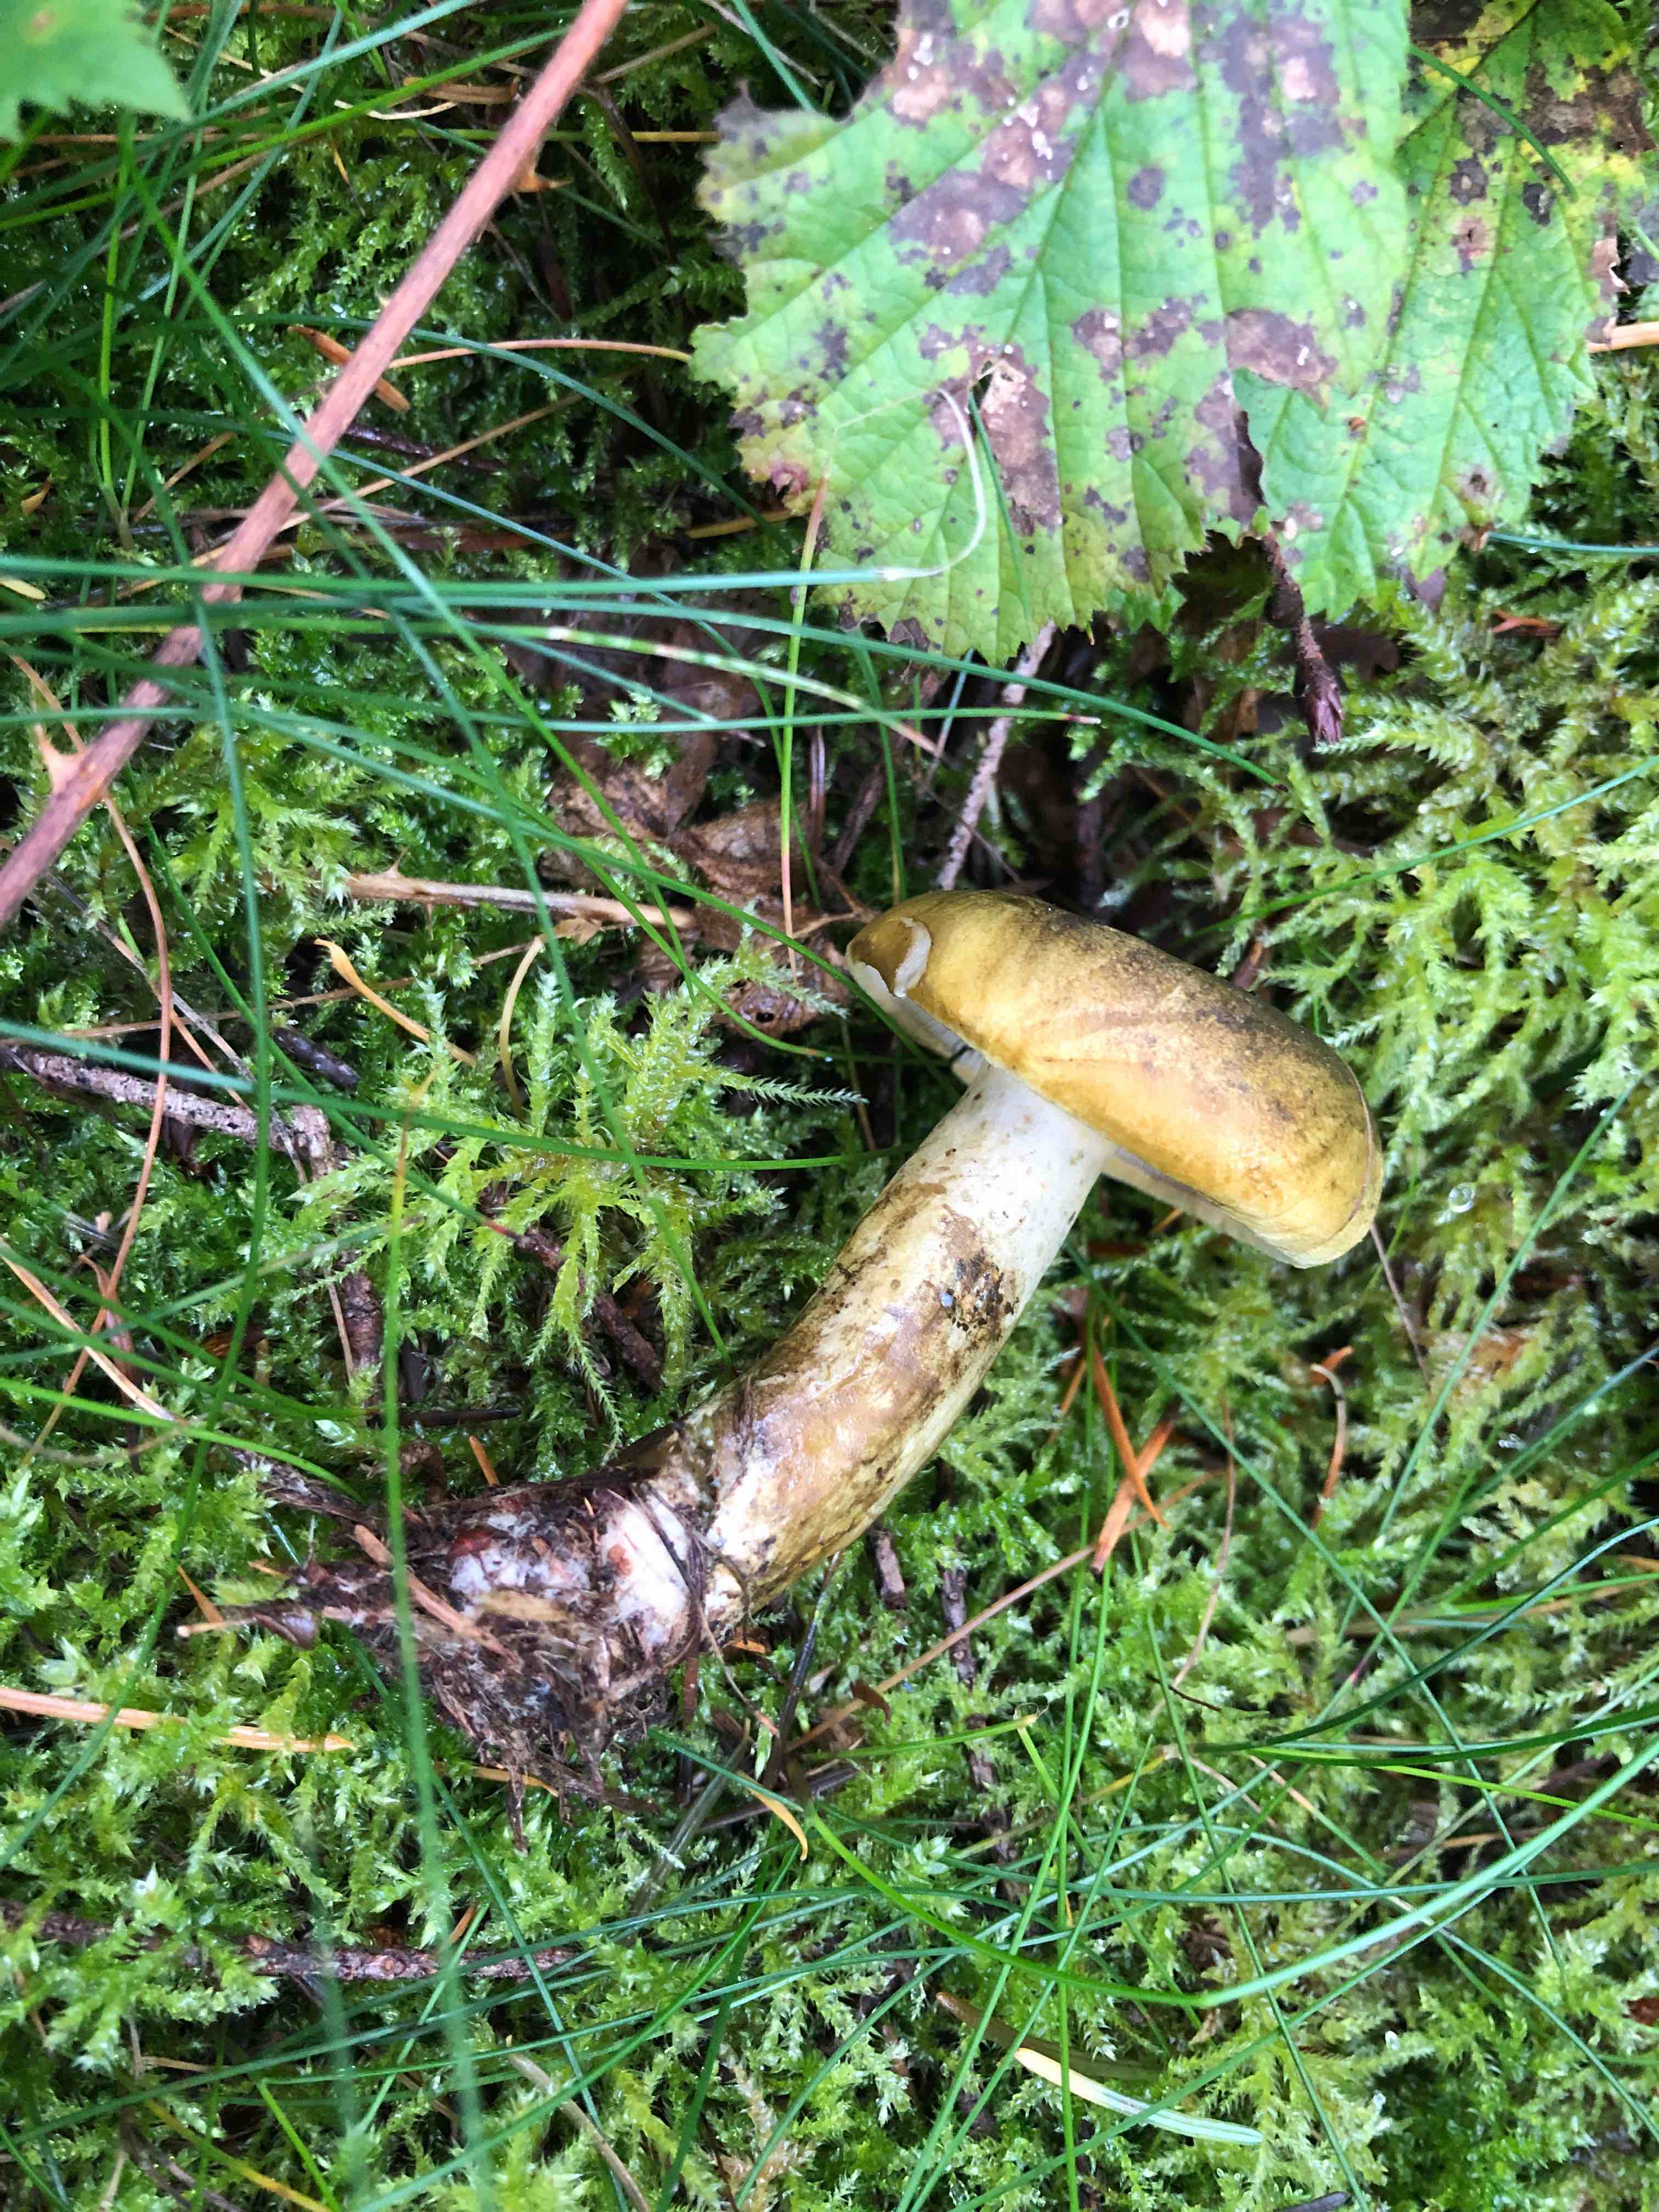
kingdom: Fungi
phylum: Basidiomycota
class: Agaricomycetes
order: Russulales
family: Russulaceae
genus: Lactarius
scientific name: Lactarius necator
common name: manddraber-mælkehat
